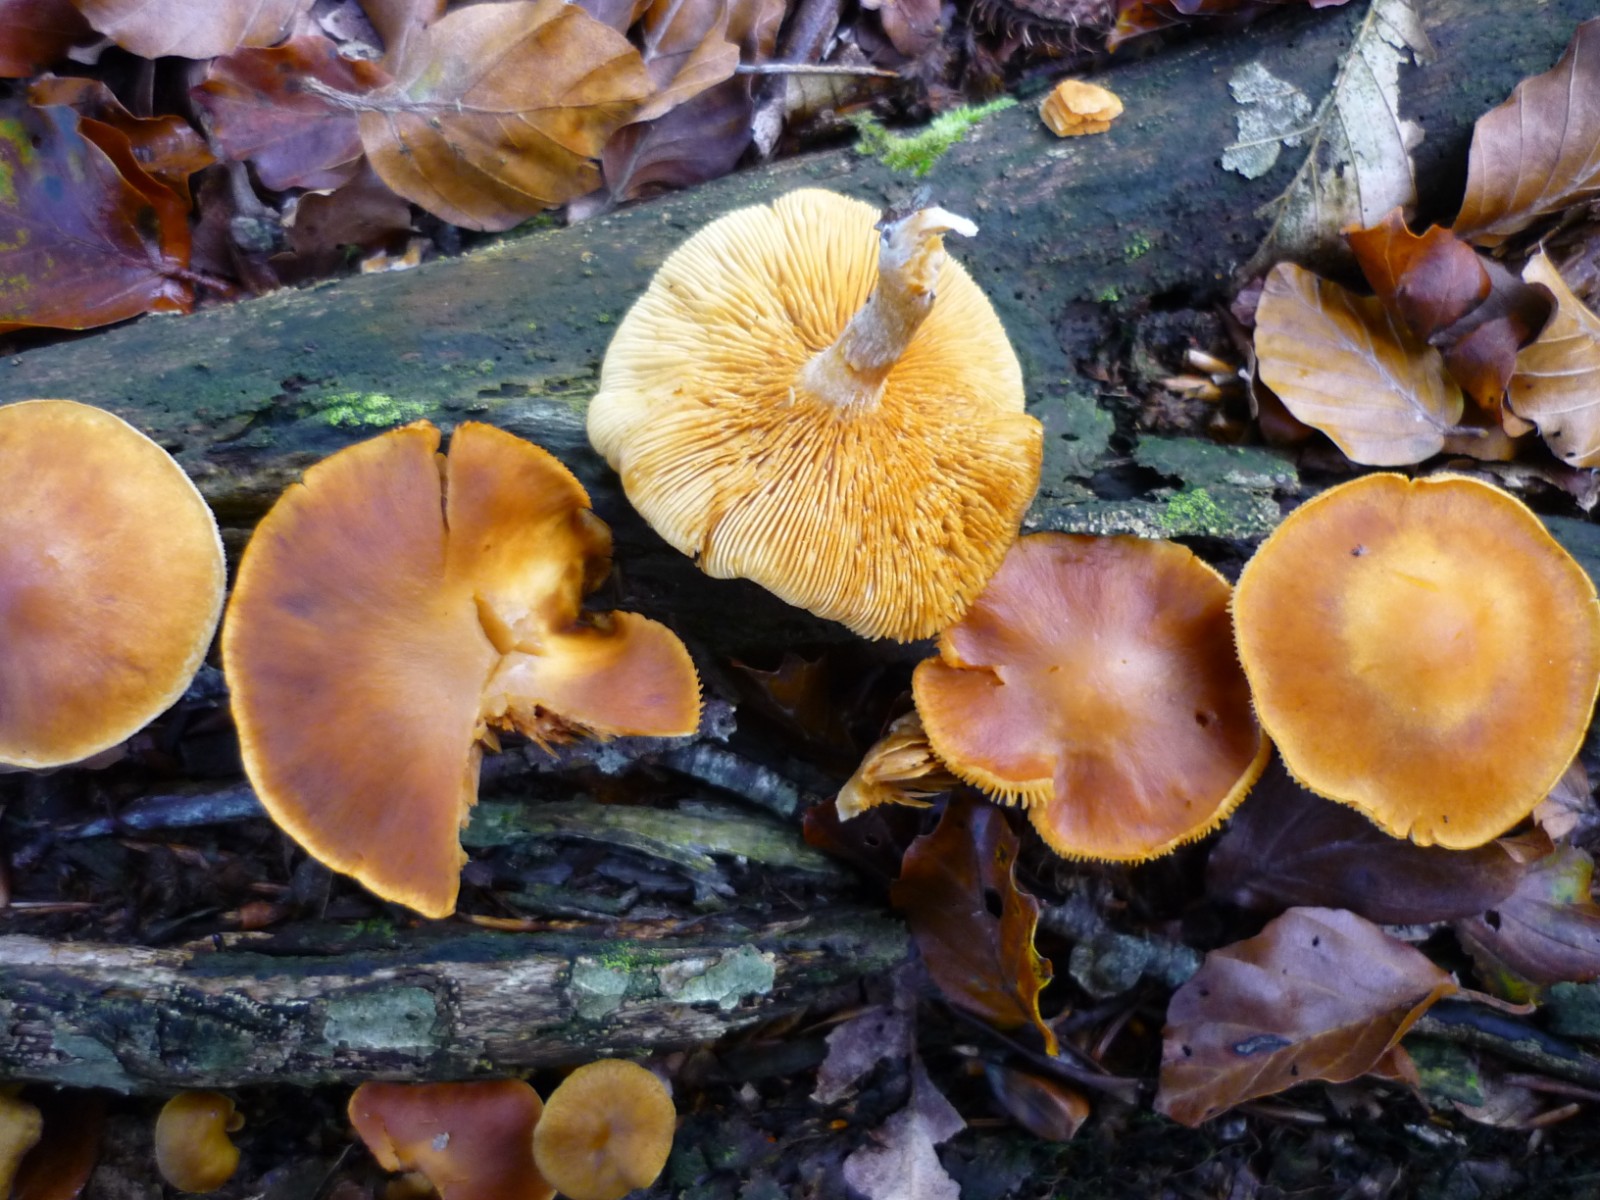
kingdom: Fungi
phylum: Basidiomycota
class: Agaricomycetes
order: Agaricales
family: Hymenogastraceae
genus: Gymnopilus
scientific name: Gymnopilus penetrans
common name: plettet flammehat
